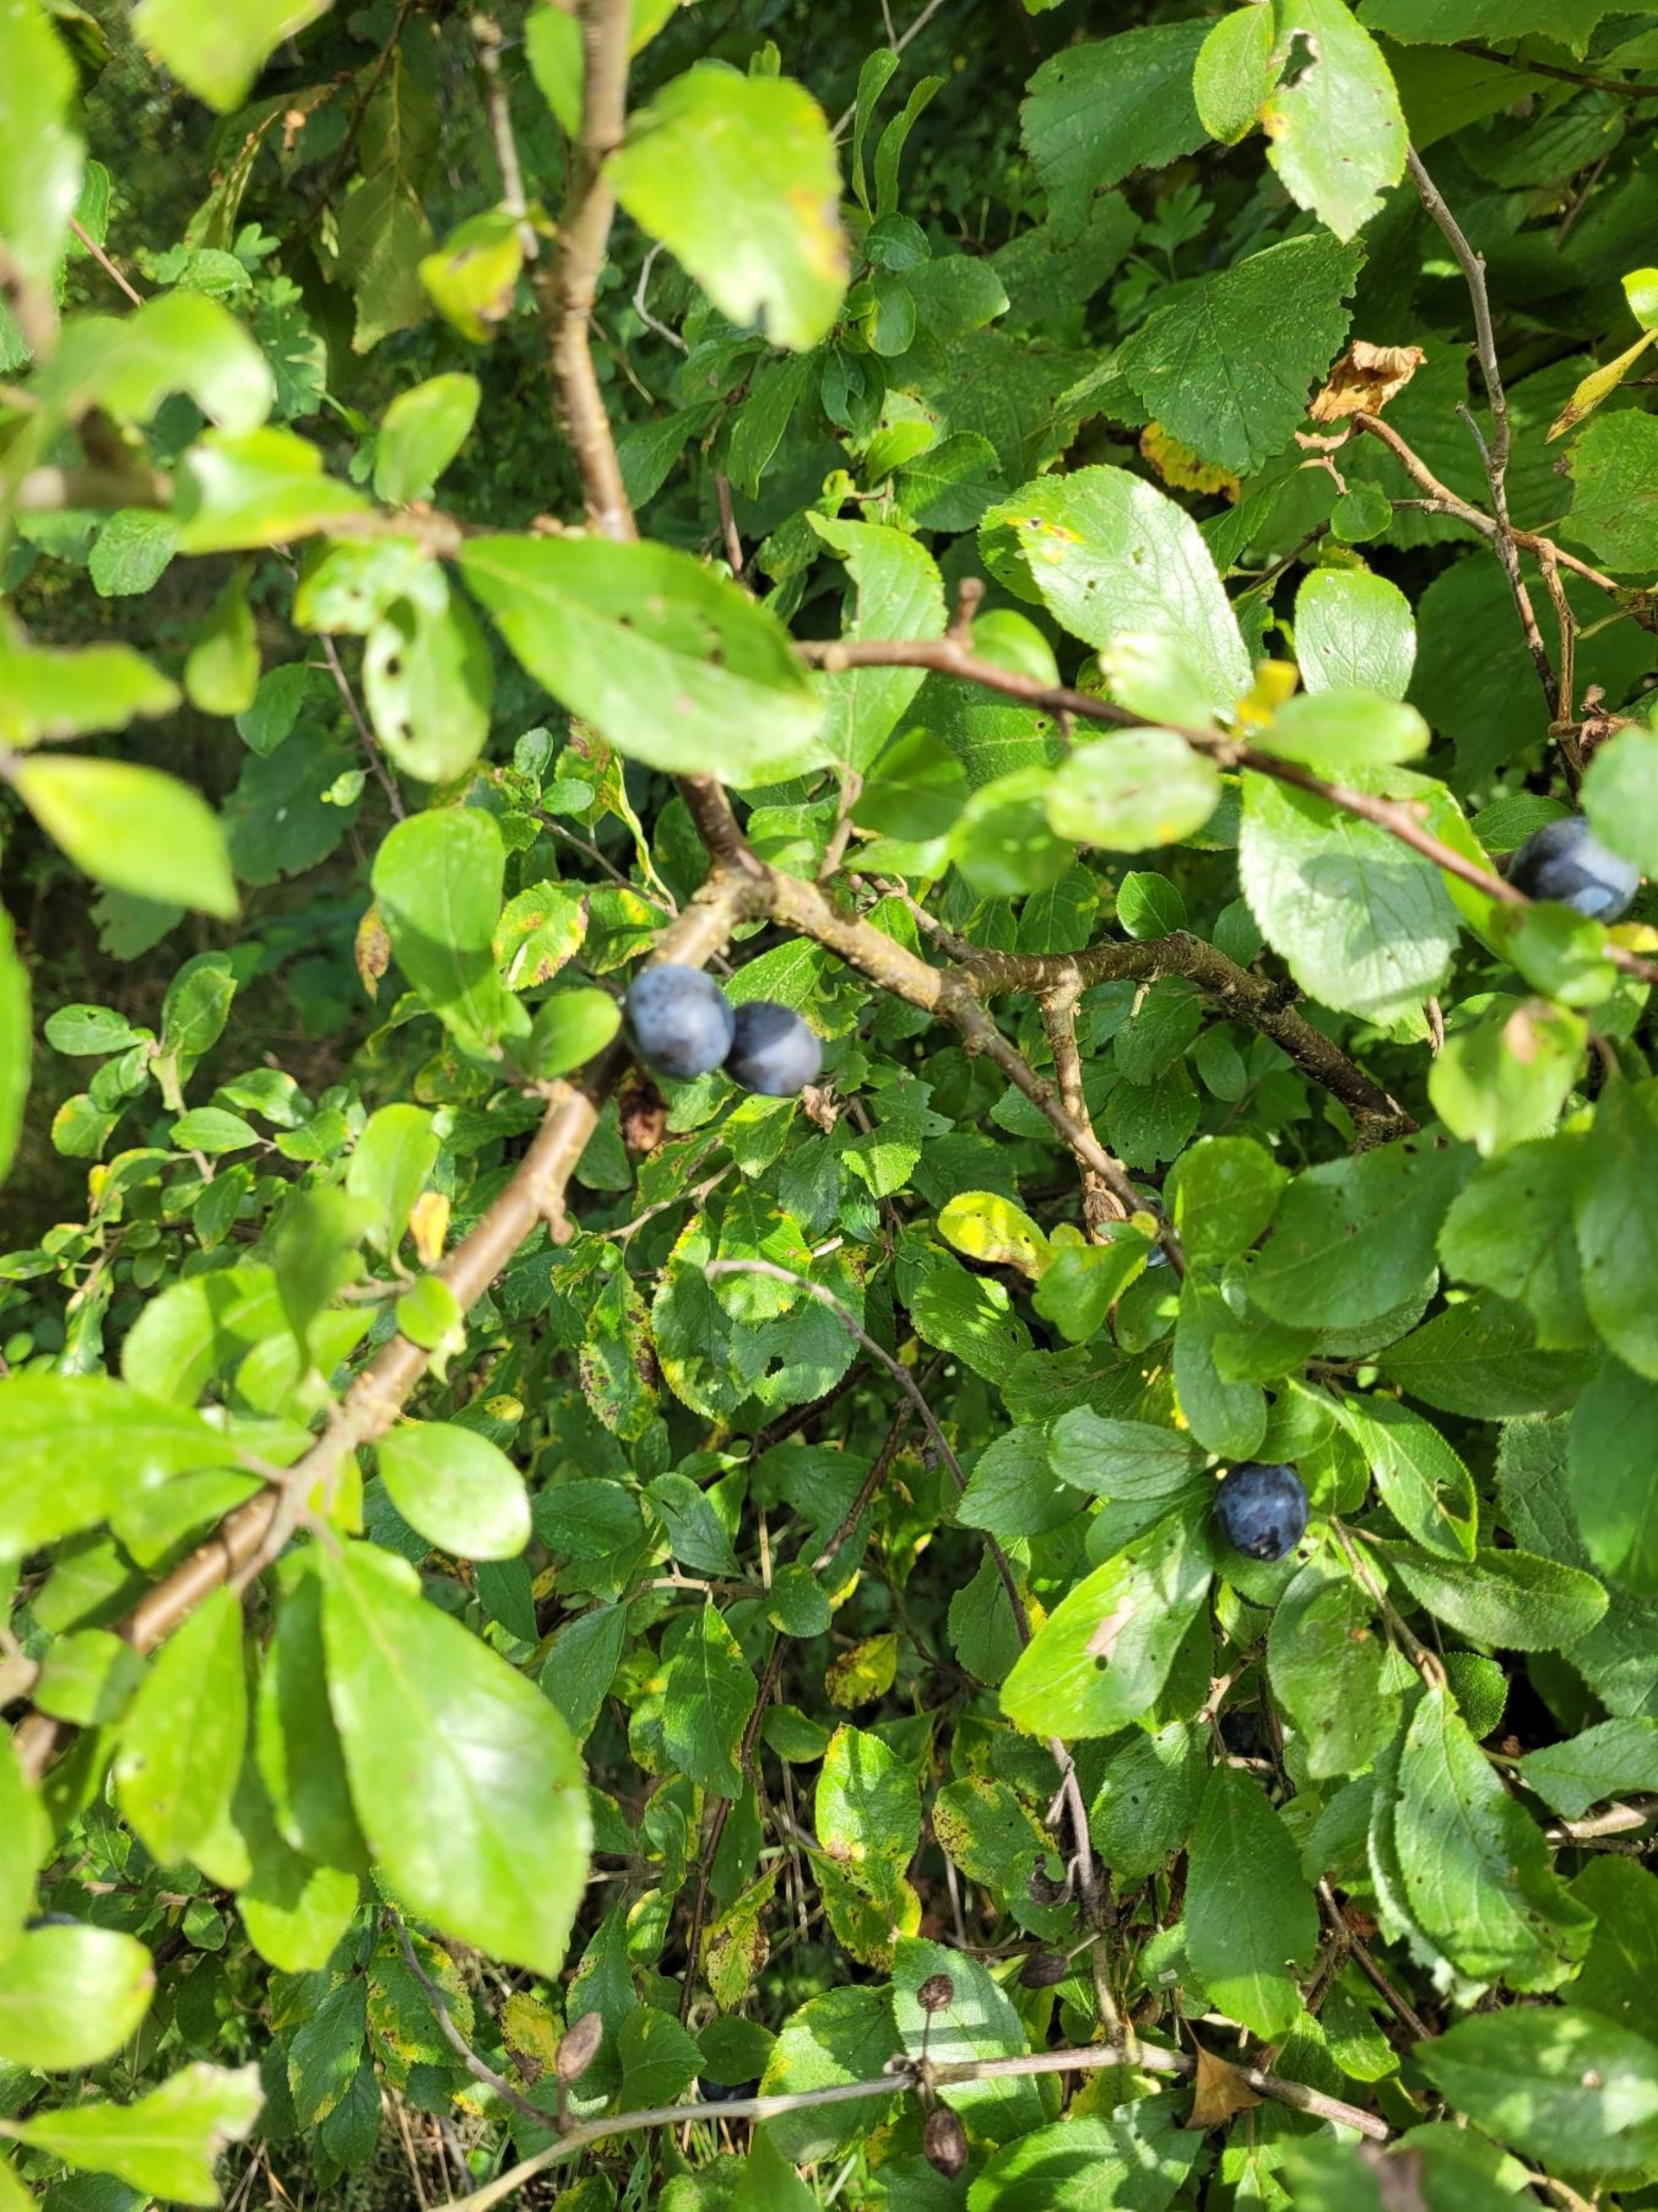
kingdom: Plantae
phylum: Tracheophyta
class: Magnoliopsida
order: Rosales
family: Rosaceae
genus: Prunus
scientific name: Prunus spinosa
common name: Slåen
